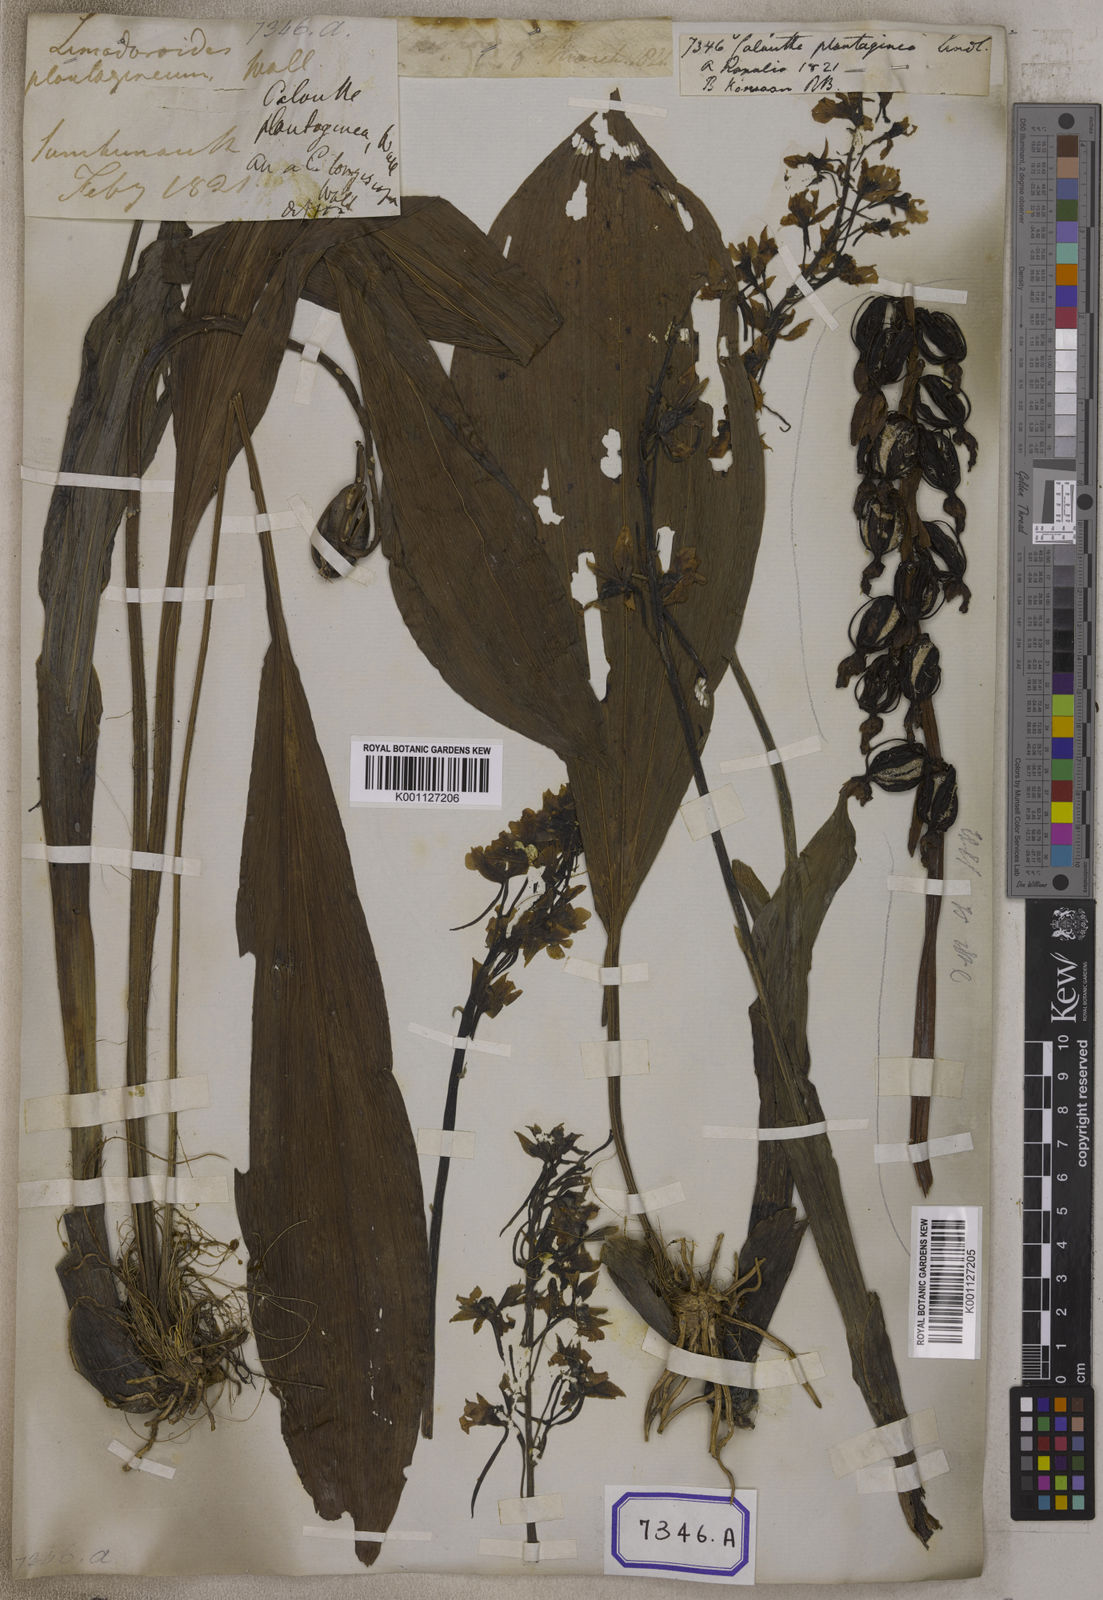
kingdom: Plantae
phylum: Tracheophyta
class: Liliopsida
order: Asparagales
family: Orchidaceae
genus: Calanthe
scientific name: Calanthe plantaginea
